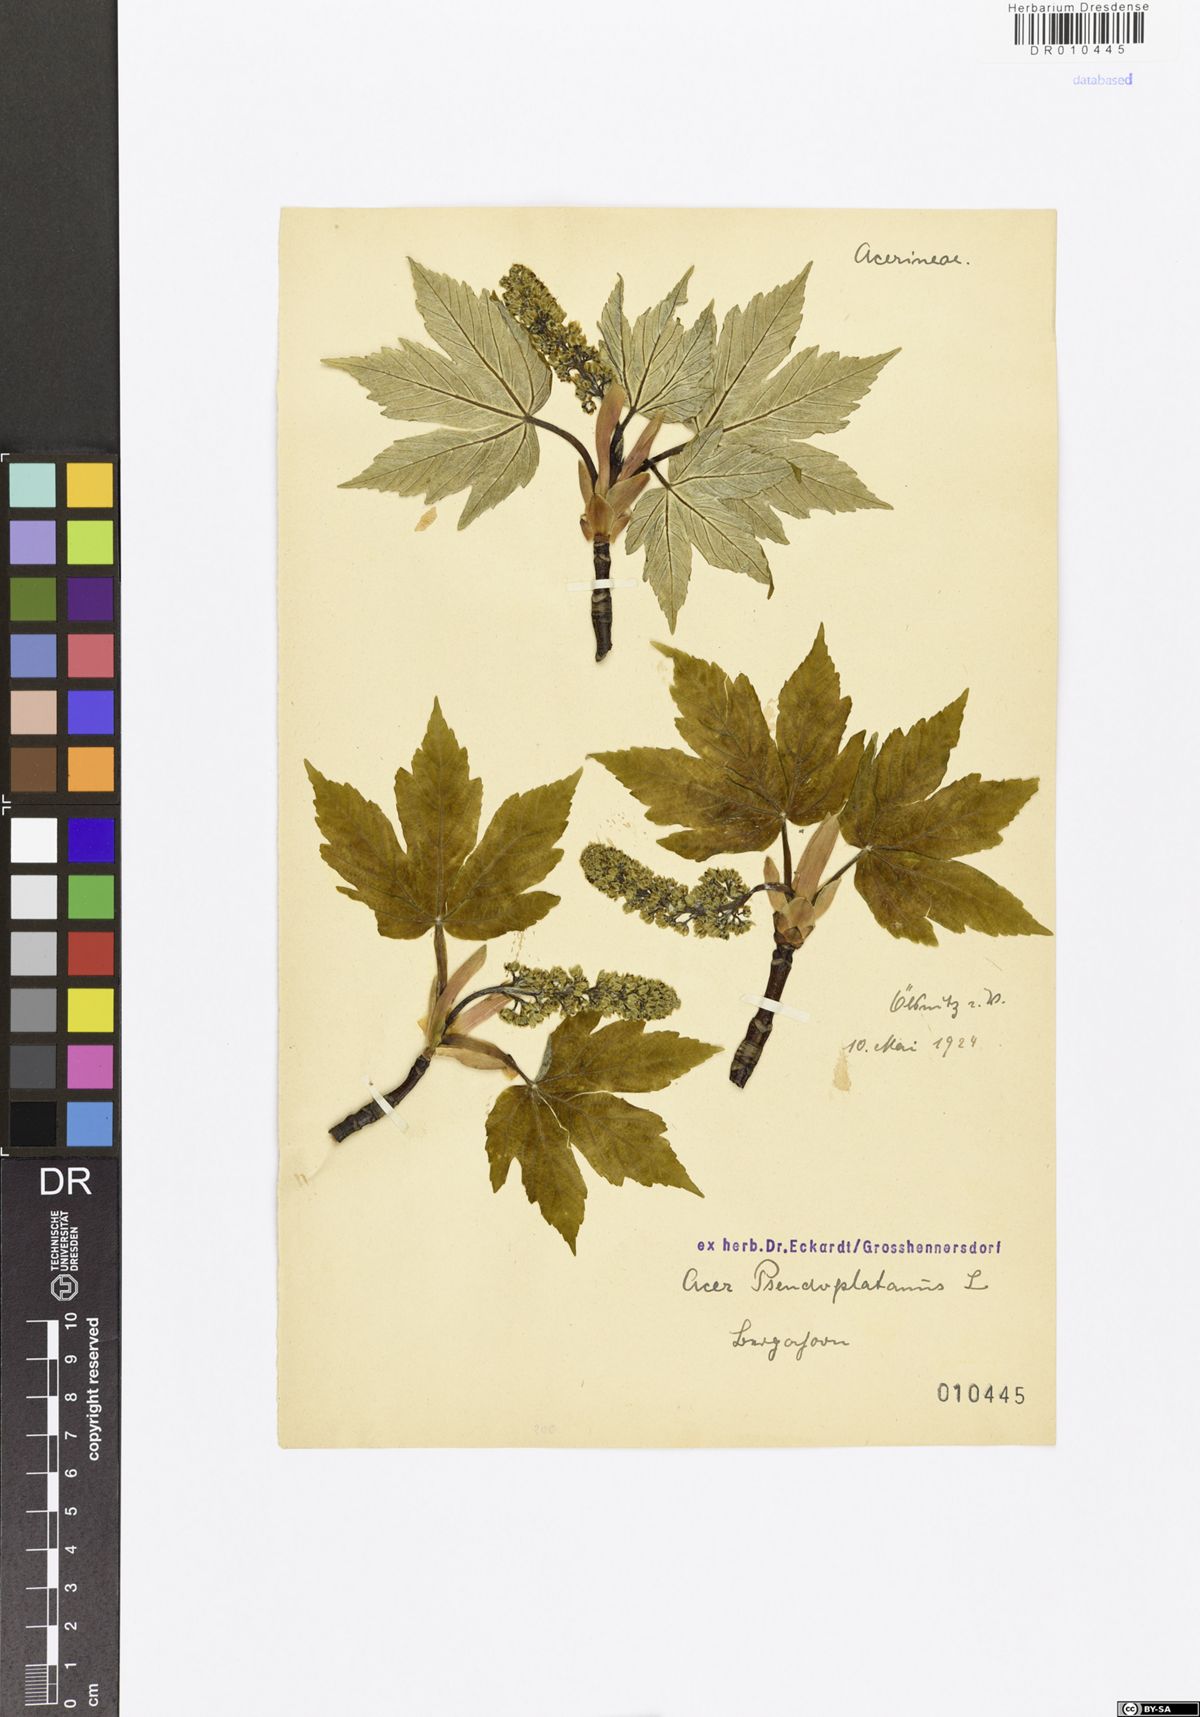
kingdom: Plantae
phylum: Tracheophyta
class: Magnoliopsida
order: Sapindales
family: Sapindaceae
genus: Acer
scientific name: Acer pseudoplatanus
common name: Sycamore
